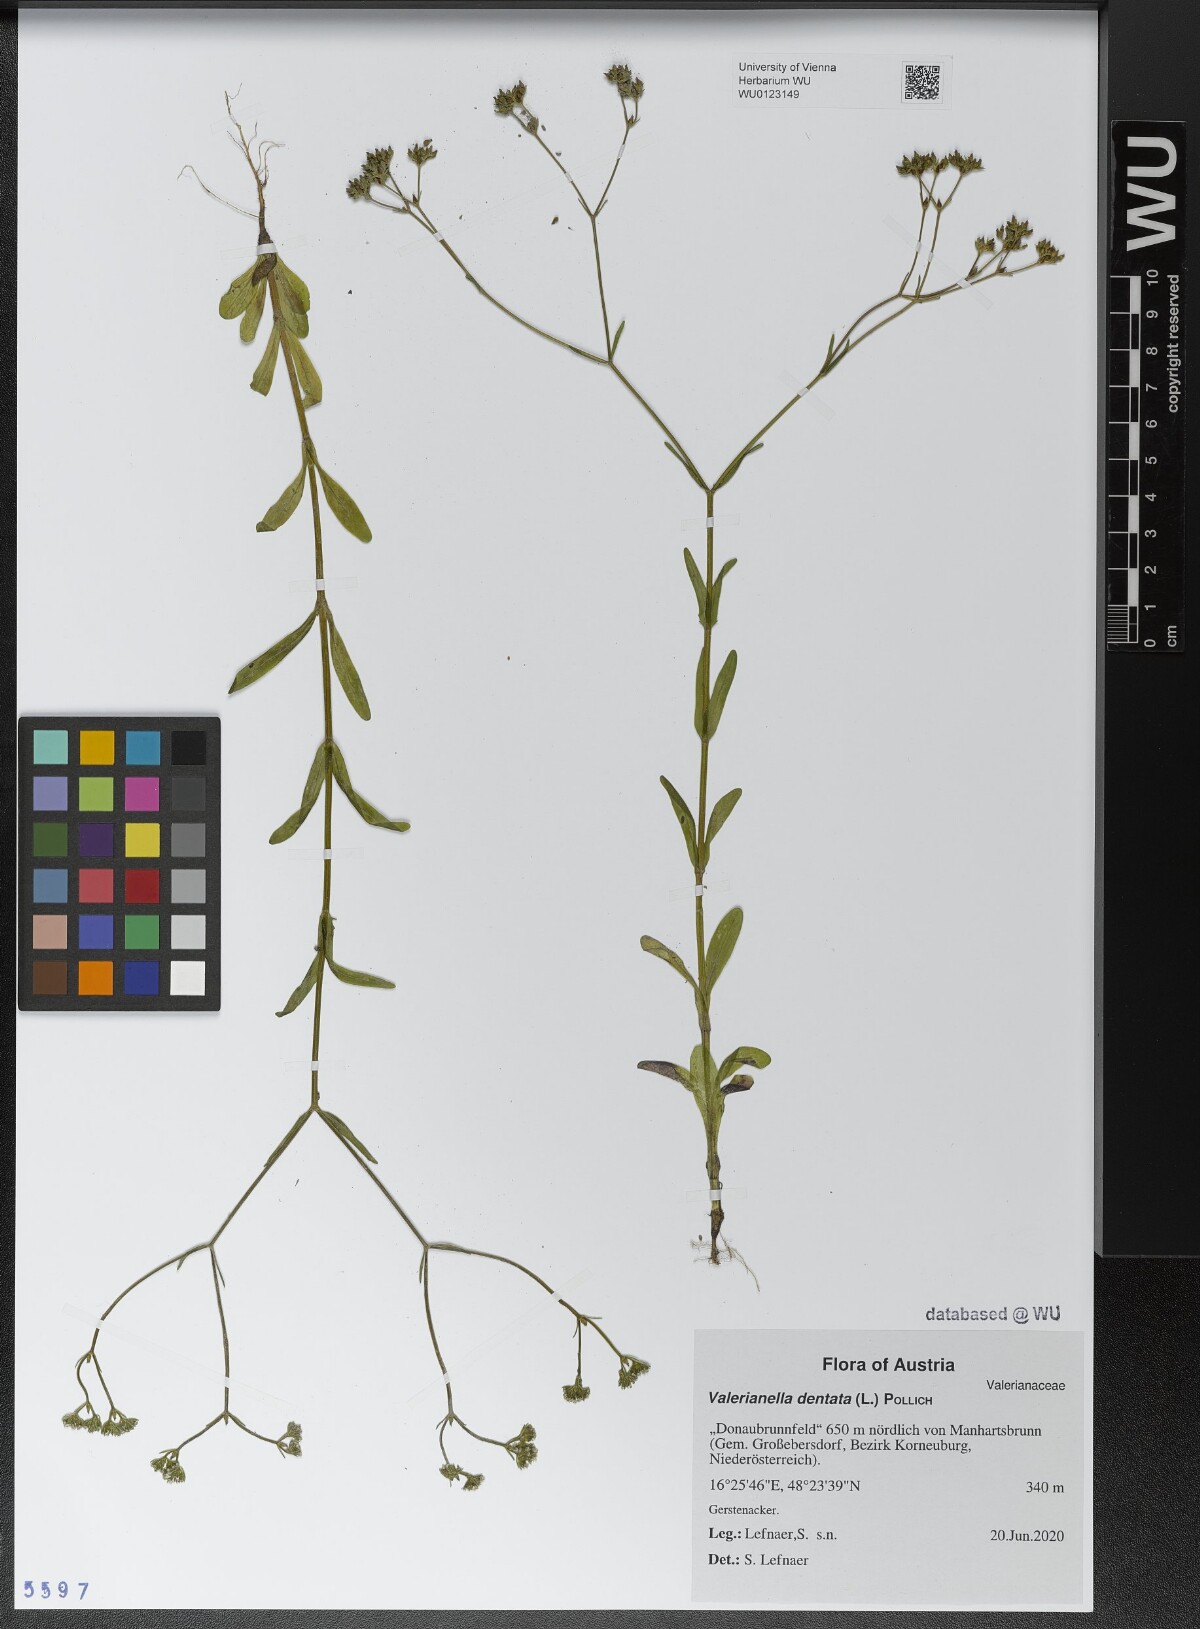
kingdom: Plantae
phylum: Tracheophyta
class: Magnoliopsida
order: Dipsacales
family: Caprifoliaceae
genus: Valerianella
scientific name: Valerianella dentata
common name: Narrow-fruited cornsalad
